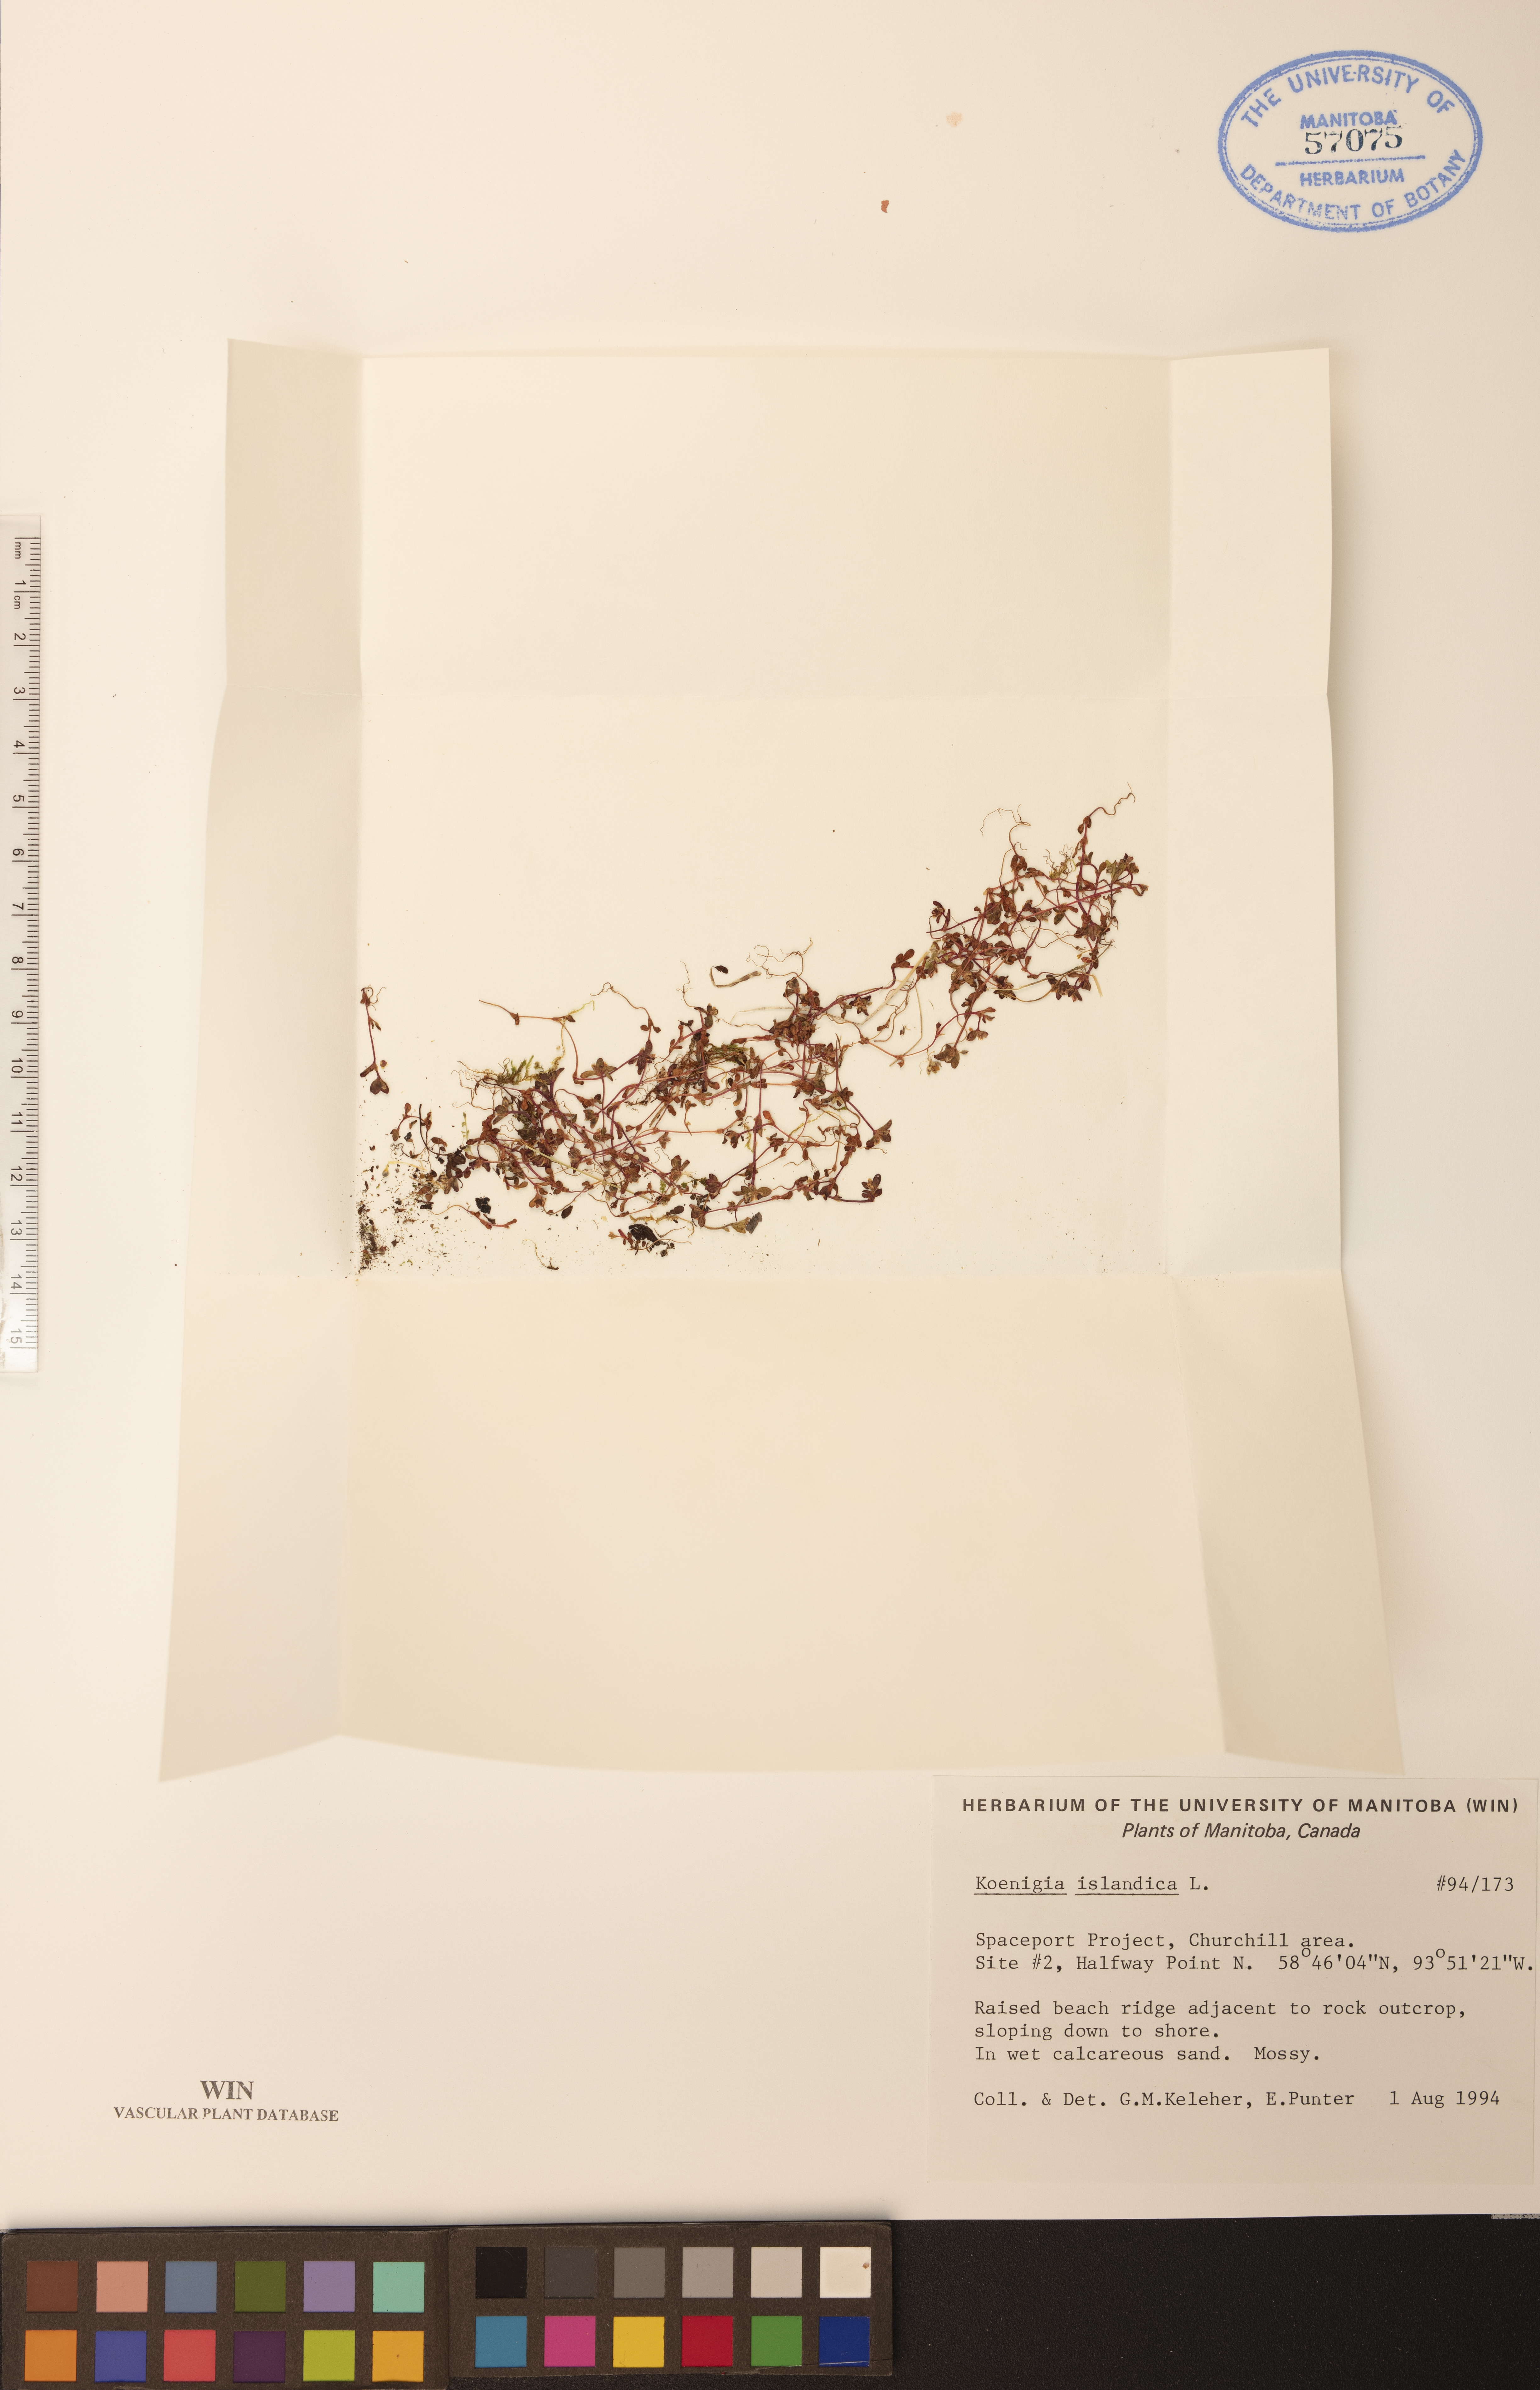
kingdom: Plantae
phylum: Tracheophyta
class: Magnoliopsida
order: Caryophyllales
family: Polygonaceae
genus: Koenigia
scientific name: Koenigia islandica
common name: Iceland-purslane
